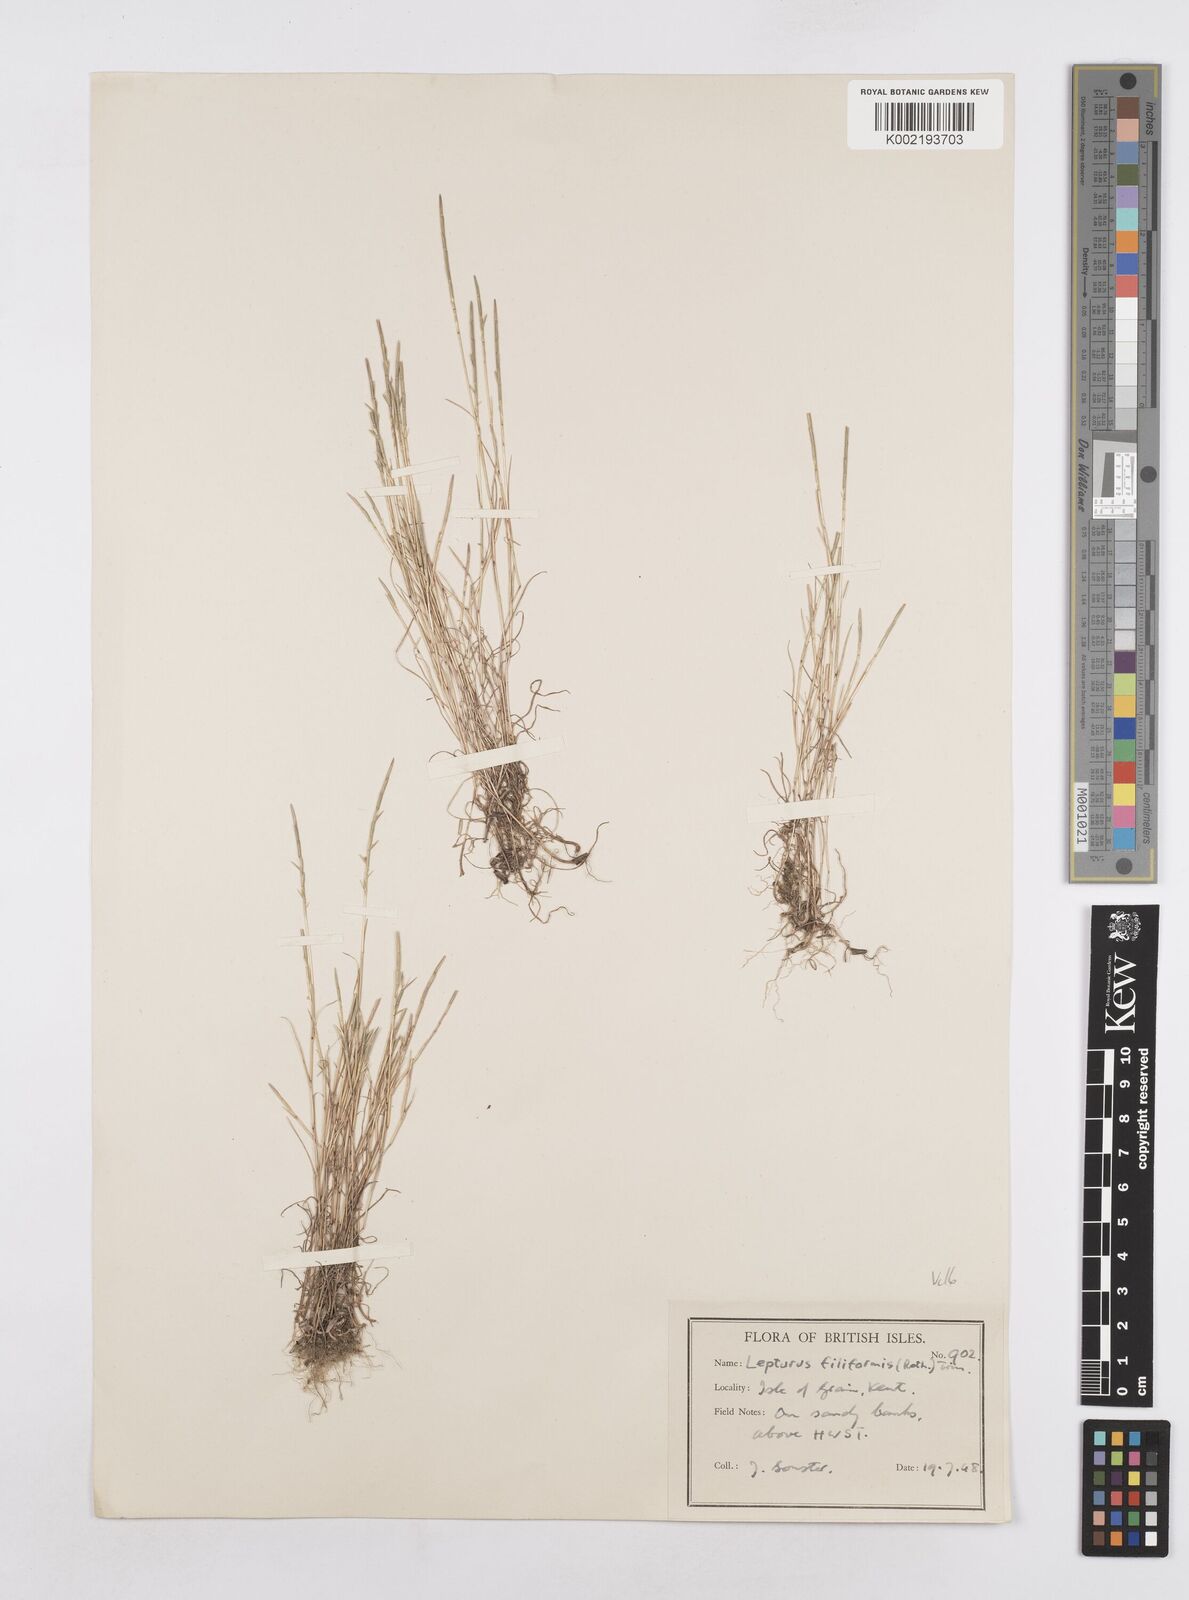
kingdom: Plantae
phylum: Tracheophyta
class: Liliopsida
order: Poales
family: Poaceae
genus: Parapholis
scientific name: Parapholis strigosa
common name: Hard-grass
